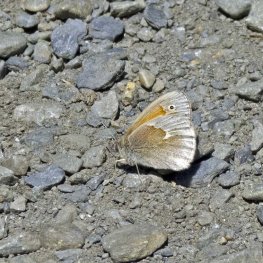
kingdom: Animalia
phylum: Arthropoda
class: Insecta
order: Lepidoptera
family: Nymphalidae
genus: Coenonympha
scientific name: Coenonympha tullia
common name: Large Heath
